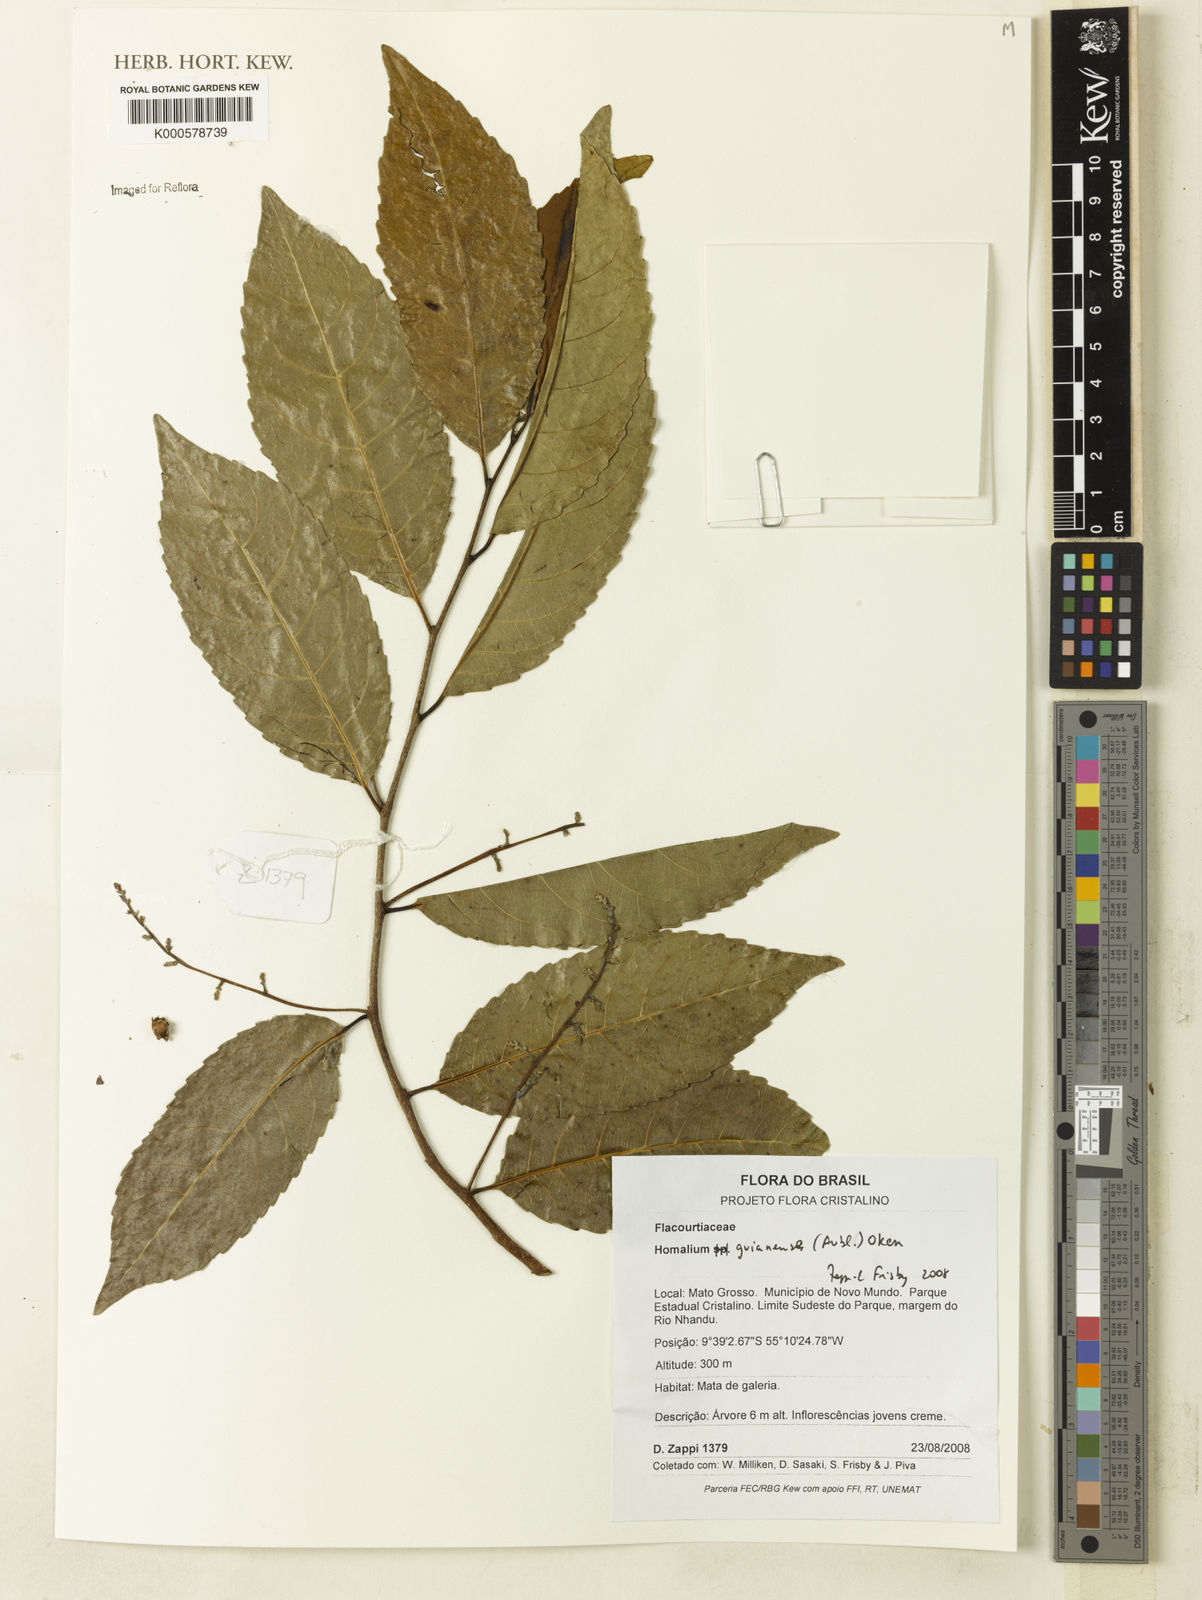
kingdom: Plantae
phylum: Tracheophyta
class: Magnoliopsida
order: Malpighiales
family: Salicaceae
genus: Homalium
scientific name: Homalium guianense
